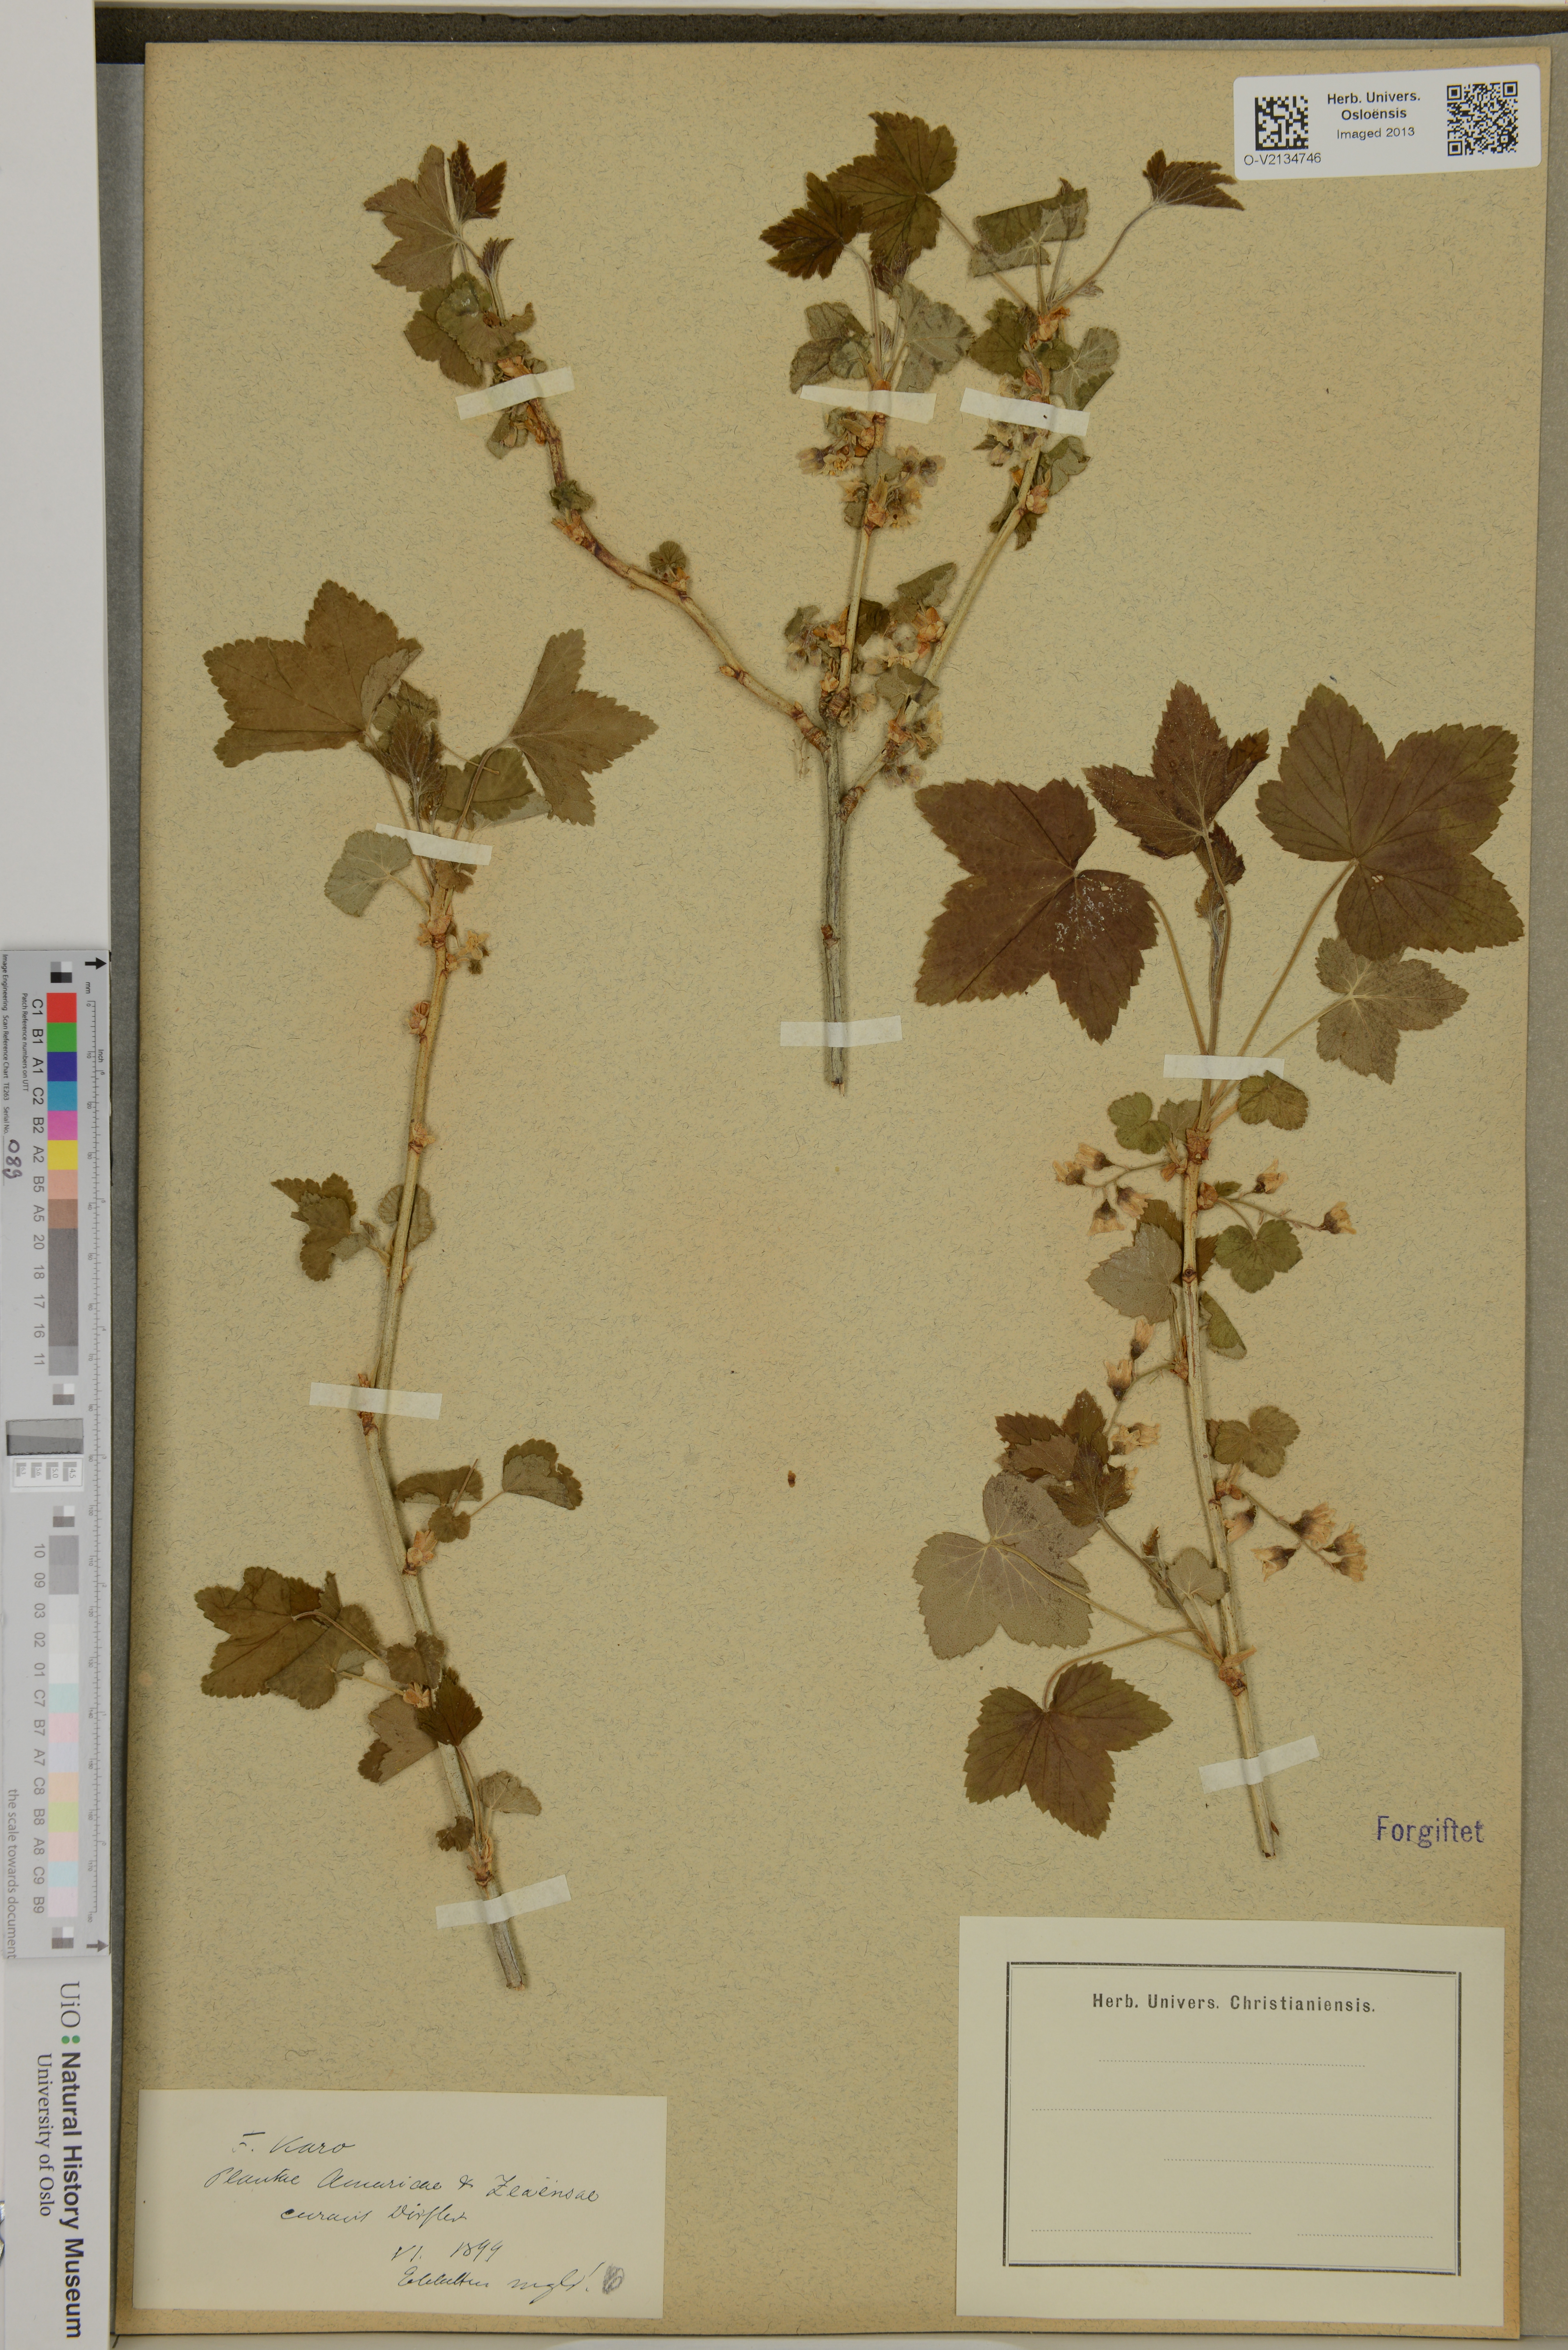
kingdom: Plantae
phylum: Tracheophyta
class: Magnoliopsida
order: Saxifragales
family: Grossulariaceae
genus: Ribes
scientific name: Ribes
